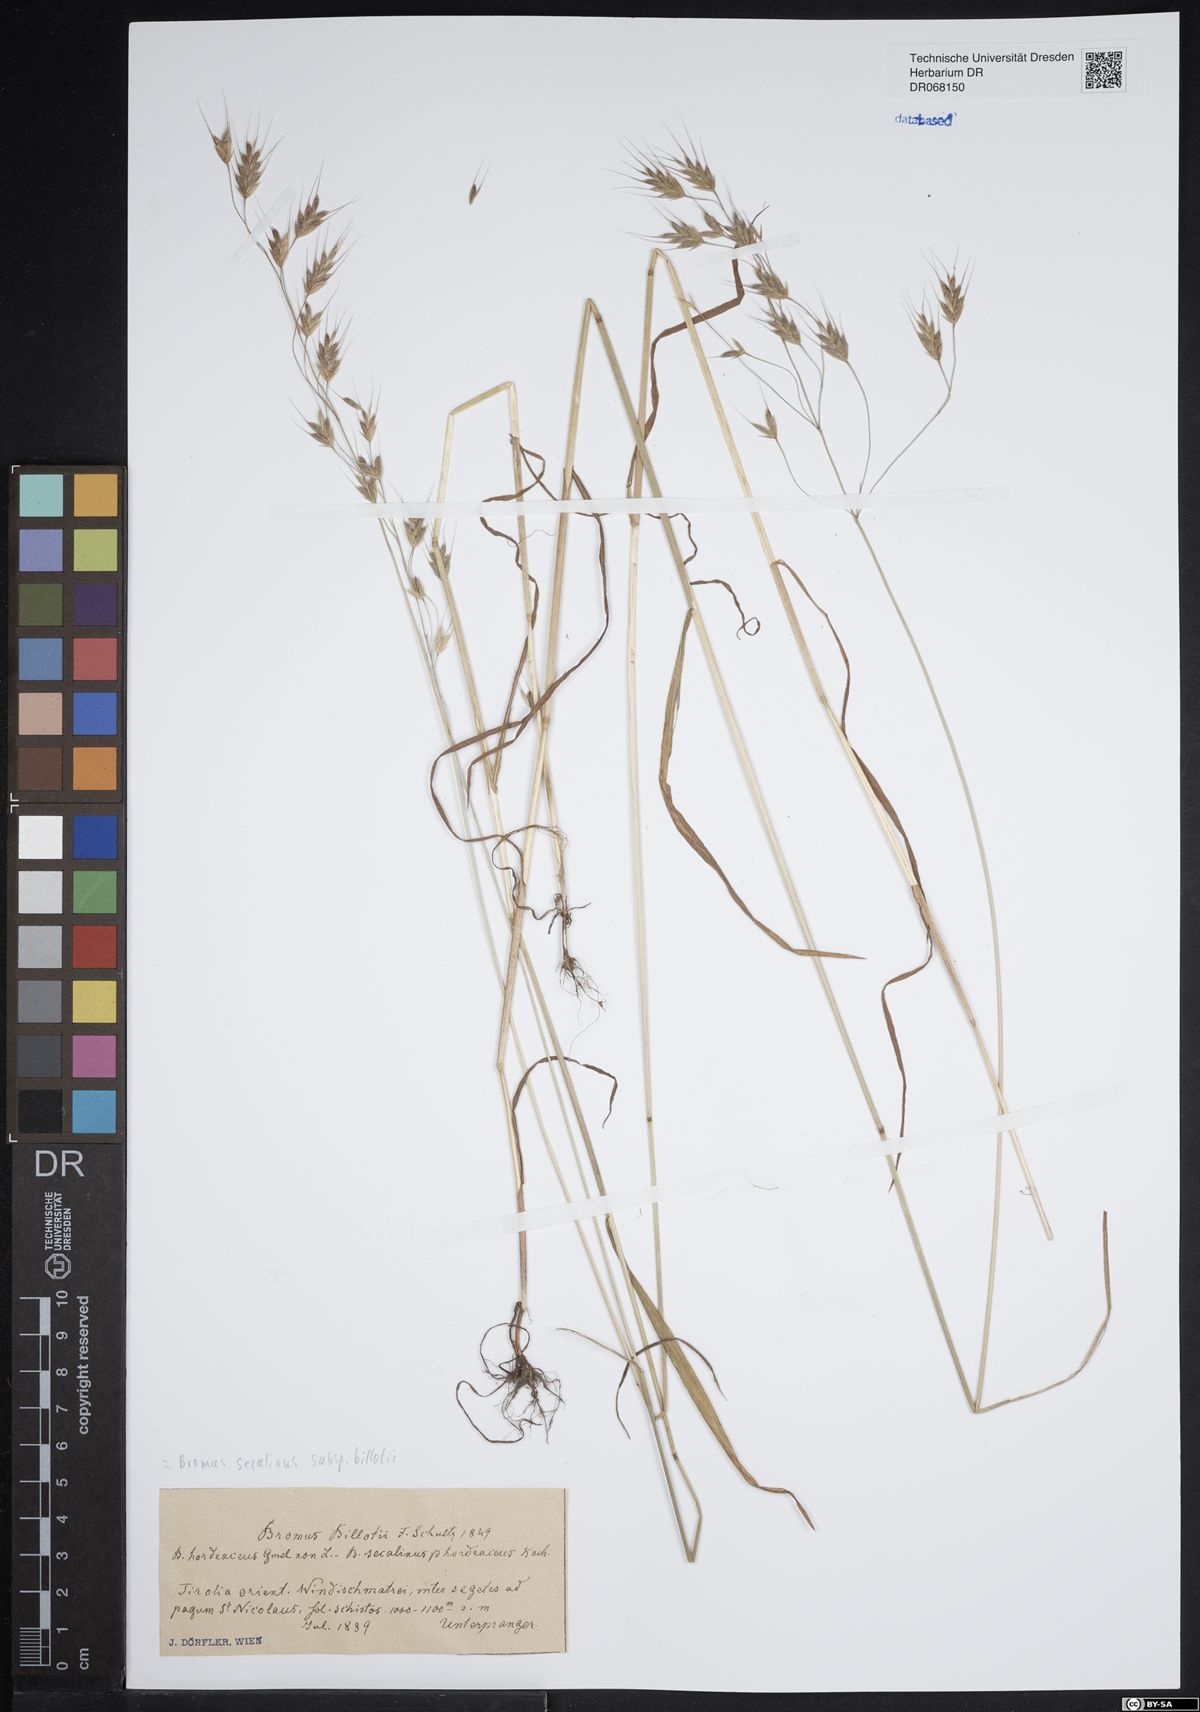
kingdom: Plantae
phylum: Tracheophyta
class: Liliopsida
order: Poales
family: Poaceae
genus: Bromus
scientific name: Bromus arvensis
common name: Field brome
